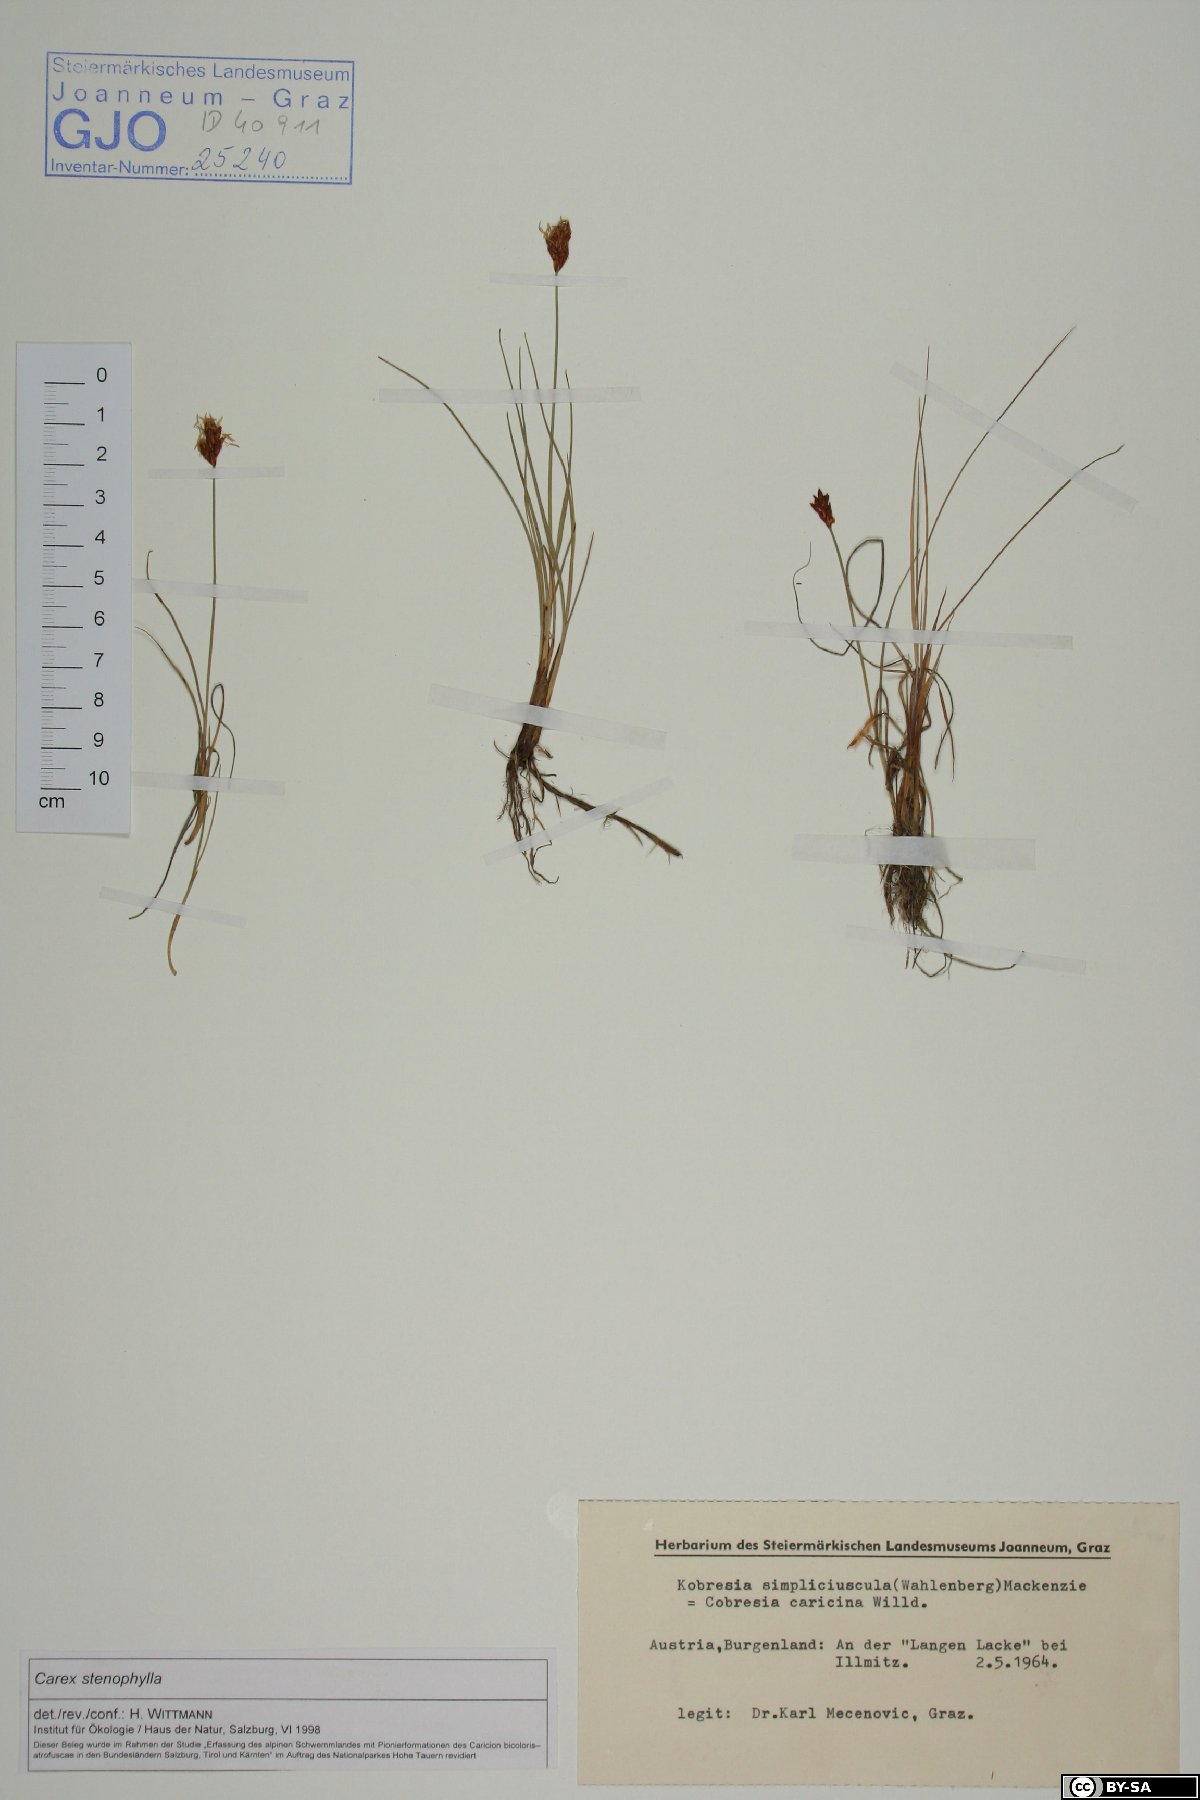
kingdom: Plantae
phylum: Tracheophyta
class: Liliopsida
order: Poales
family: Cyperaceae
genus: Carex
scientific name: Carex stenophylla
